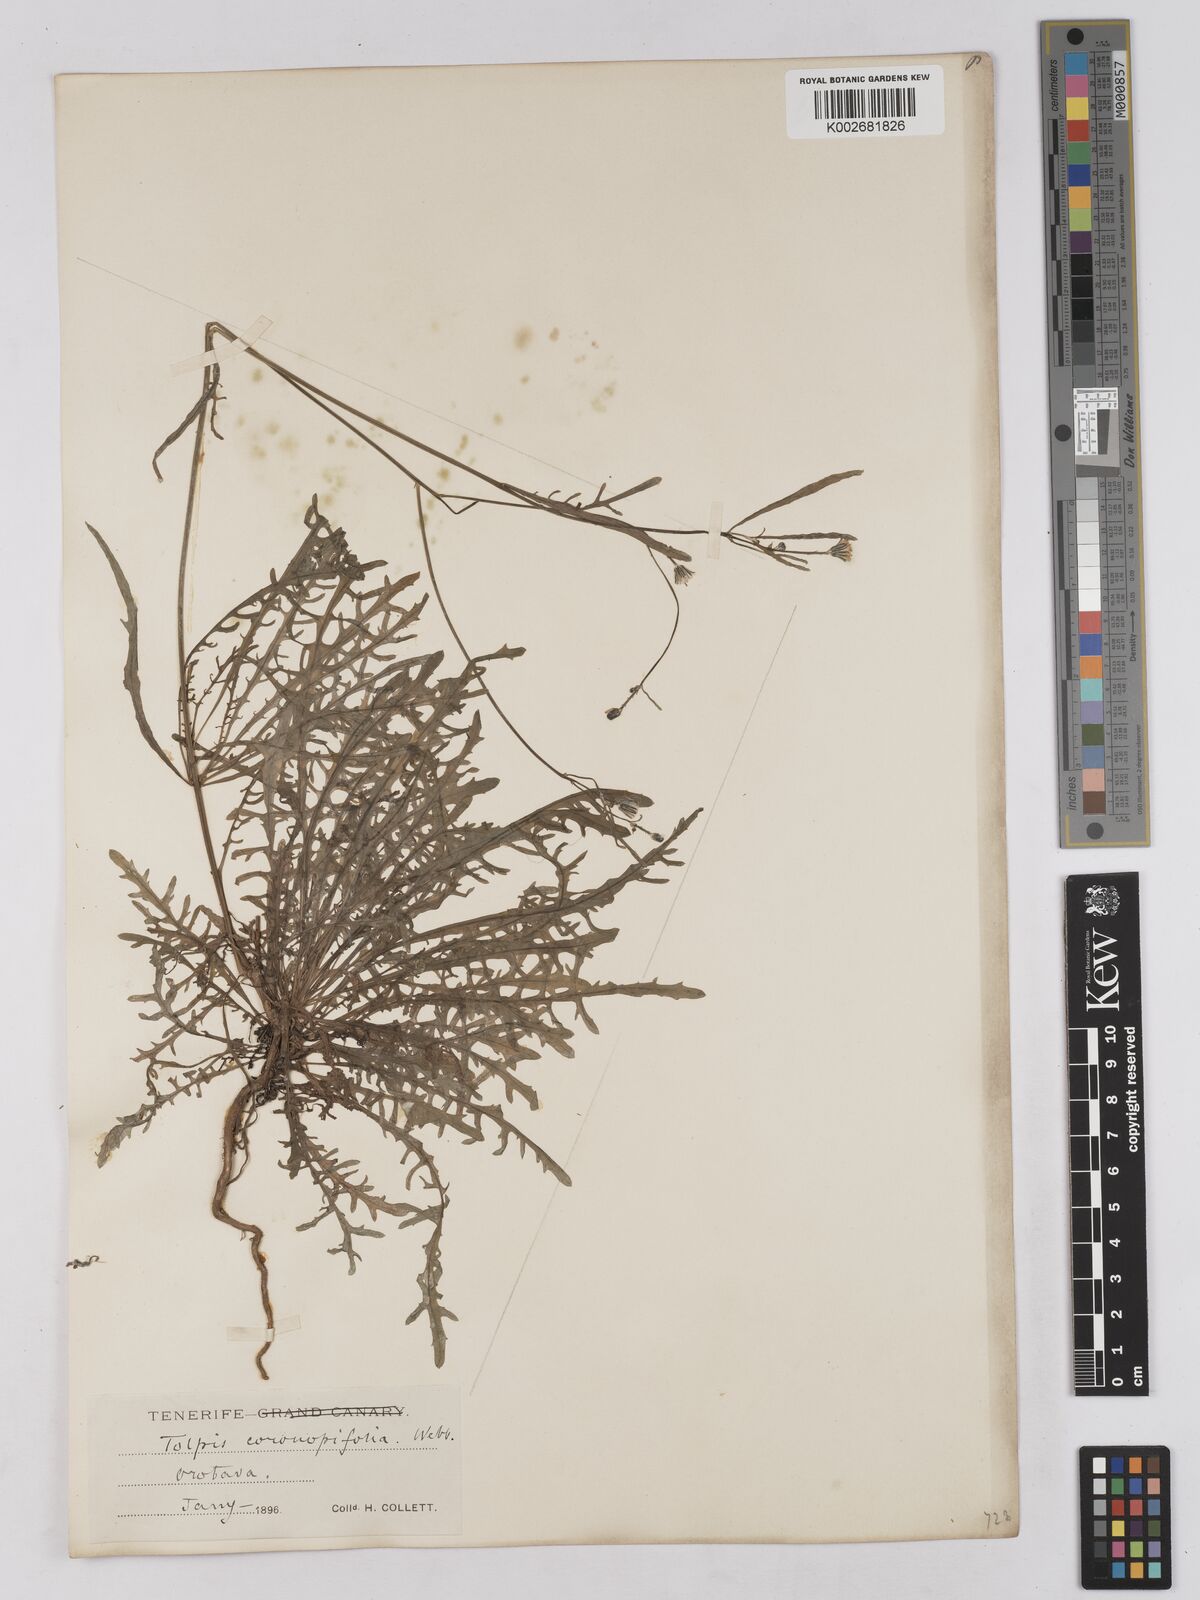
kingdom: Plantae
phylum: Tracheophyta
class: Magnoliopsida
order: Asterales
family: Asteraceae
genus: Tolpis
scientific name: Tolpis coronopifolia
